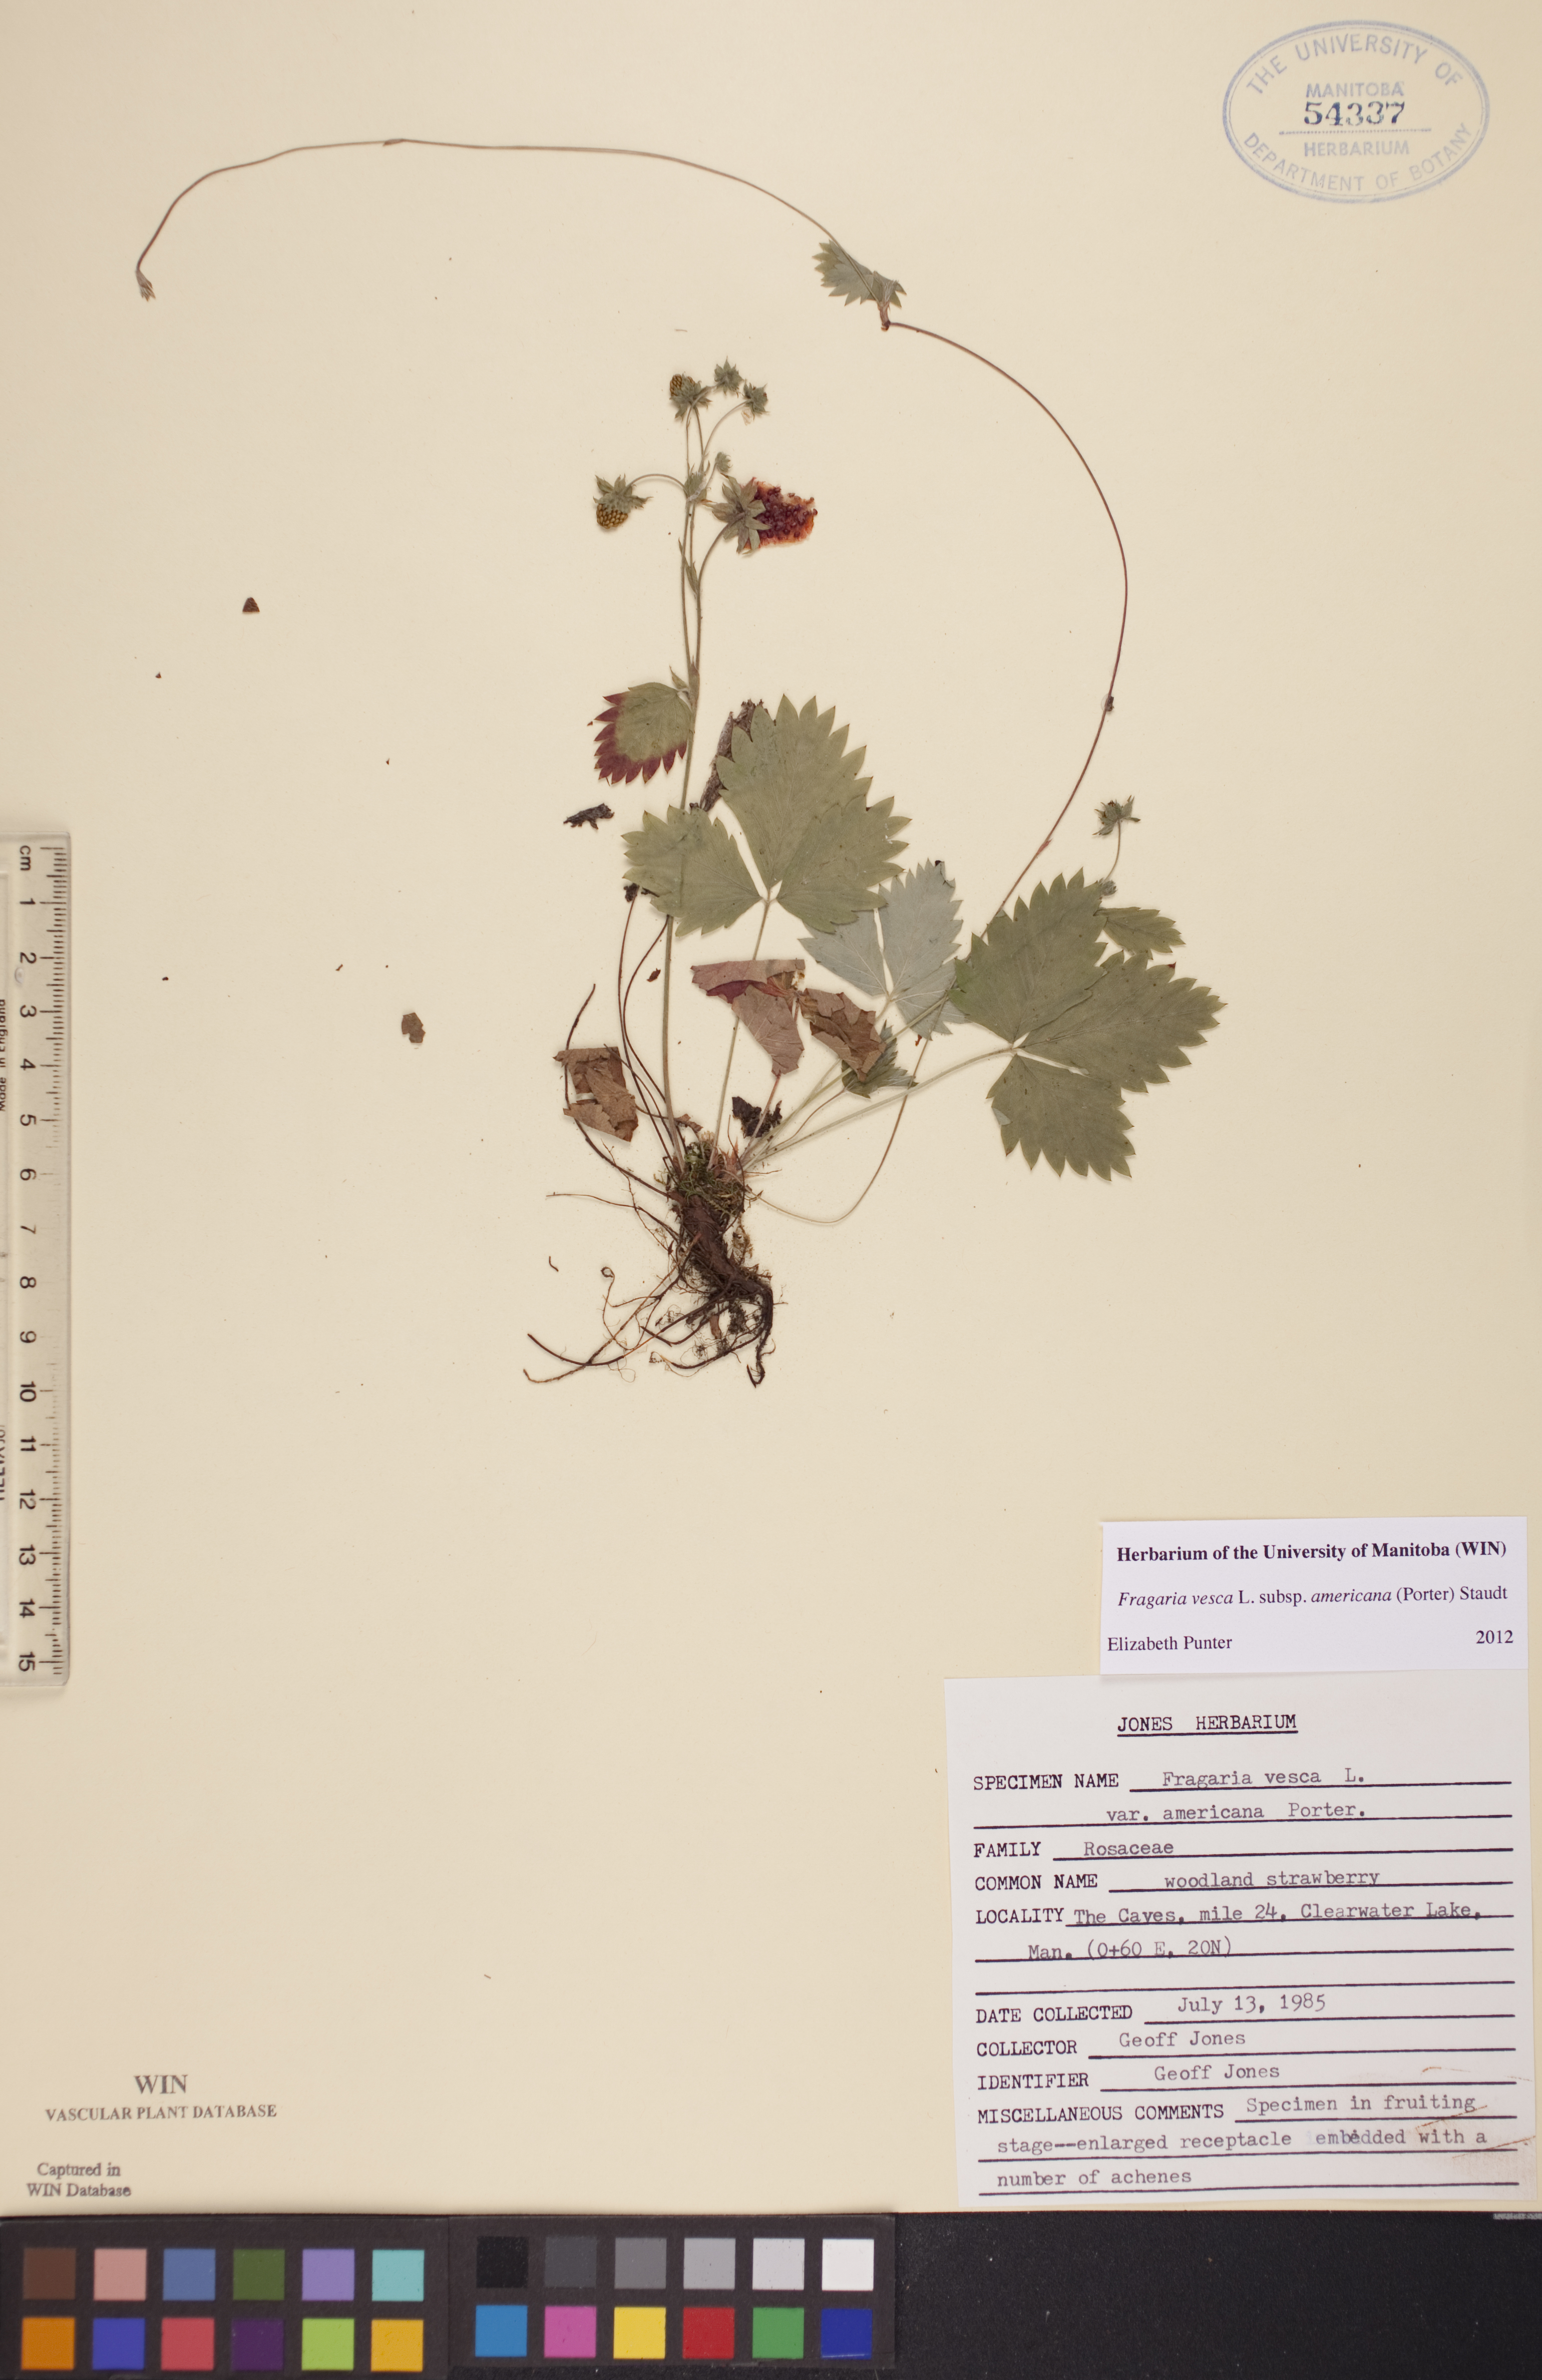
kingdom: Plantae
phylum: Tracheophyta
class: Magnoliopsida
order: Rosales
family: Rosaceae
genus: Fragaria
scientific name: Fragaria vesca
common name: Wild strawberry
